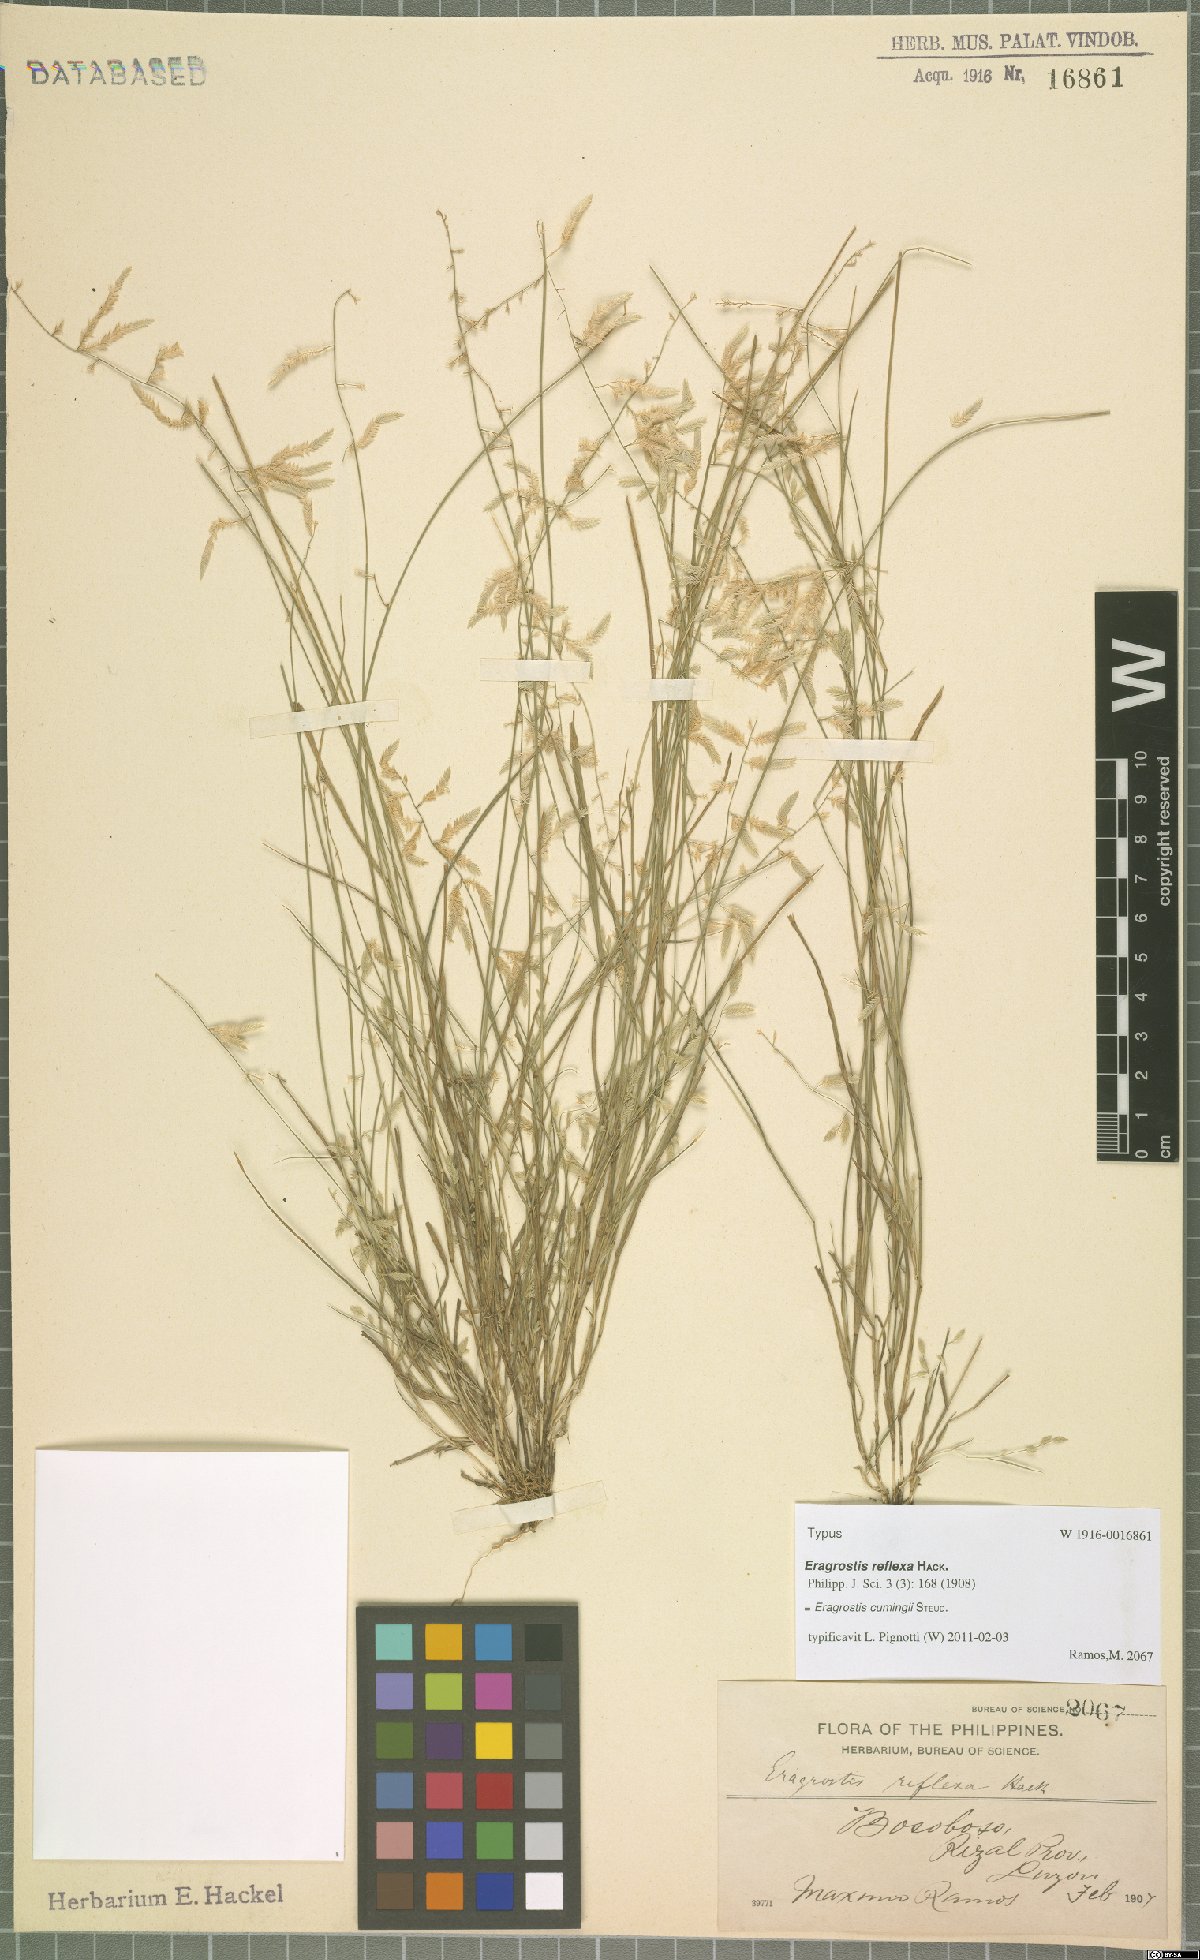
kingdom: Plantae
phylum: Tracheophyta
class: Liliopsida
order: Poales
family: Poaceae
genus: Eragrostis
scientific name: Eragrostis cumingii
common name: Cuming's lovegrass
